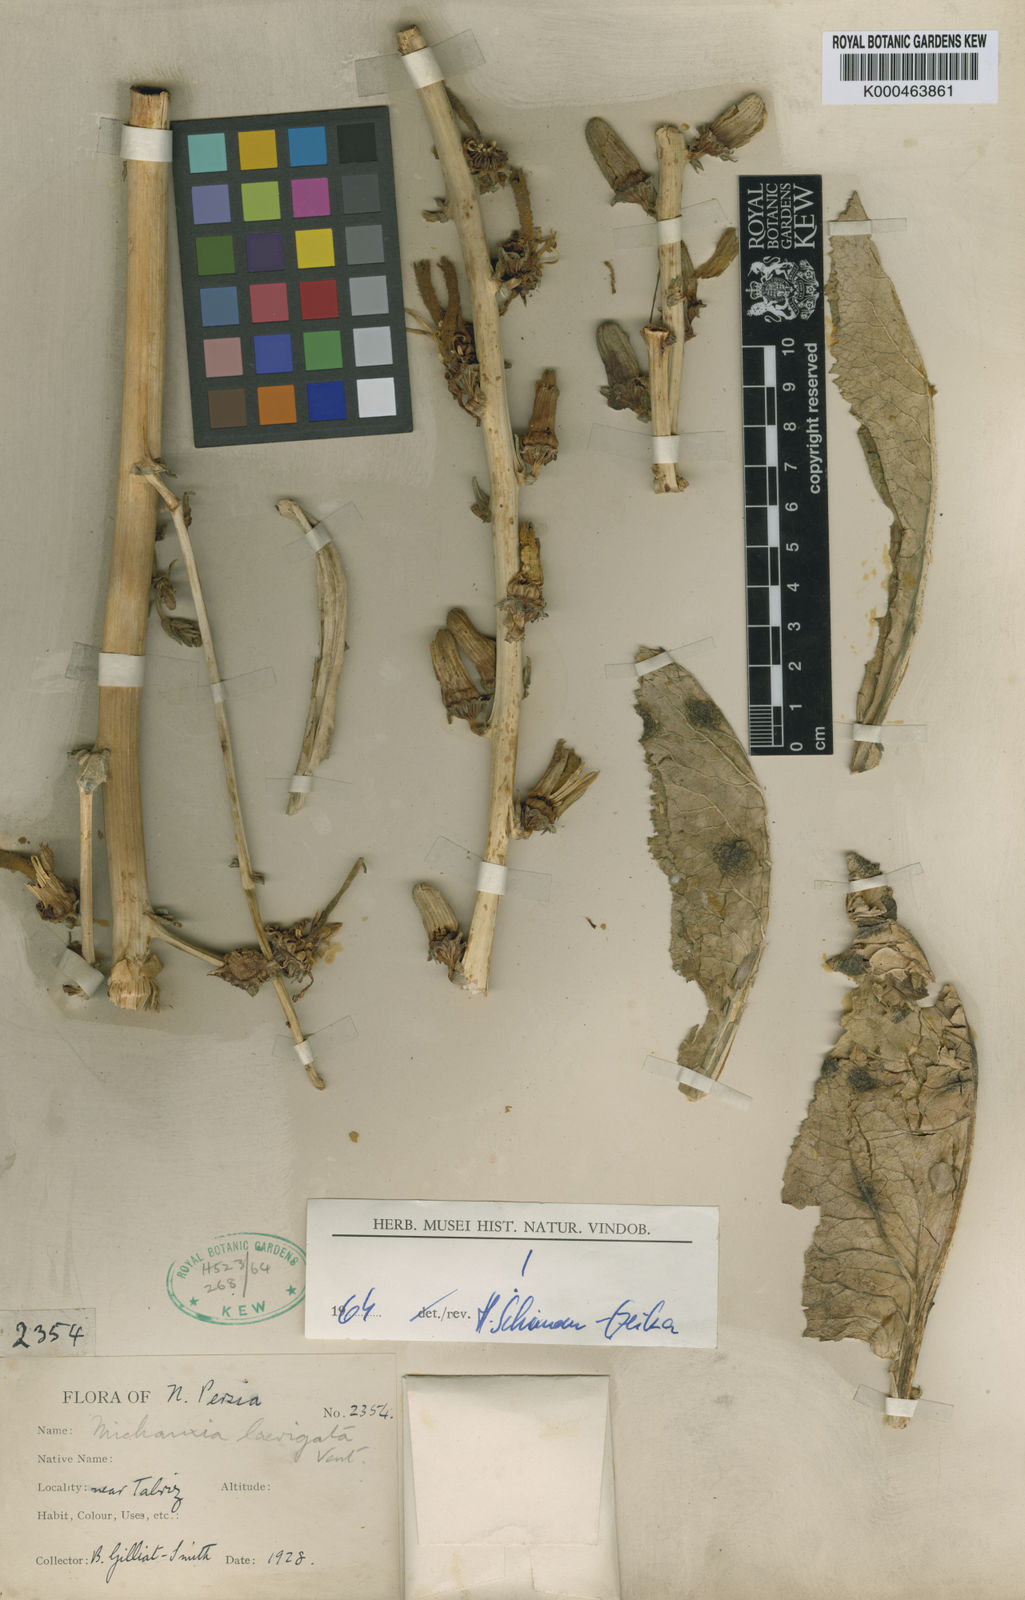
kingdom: Plantae
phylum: Tracheophyta
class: Magnoliopsida
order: Asterales
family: Campanulaceae
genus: Michauxia
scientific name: Michauxia laevigata
